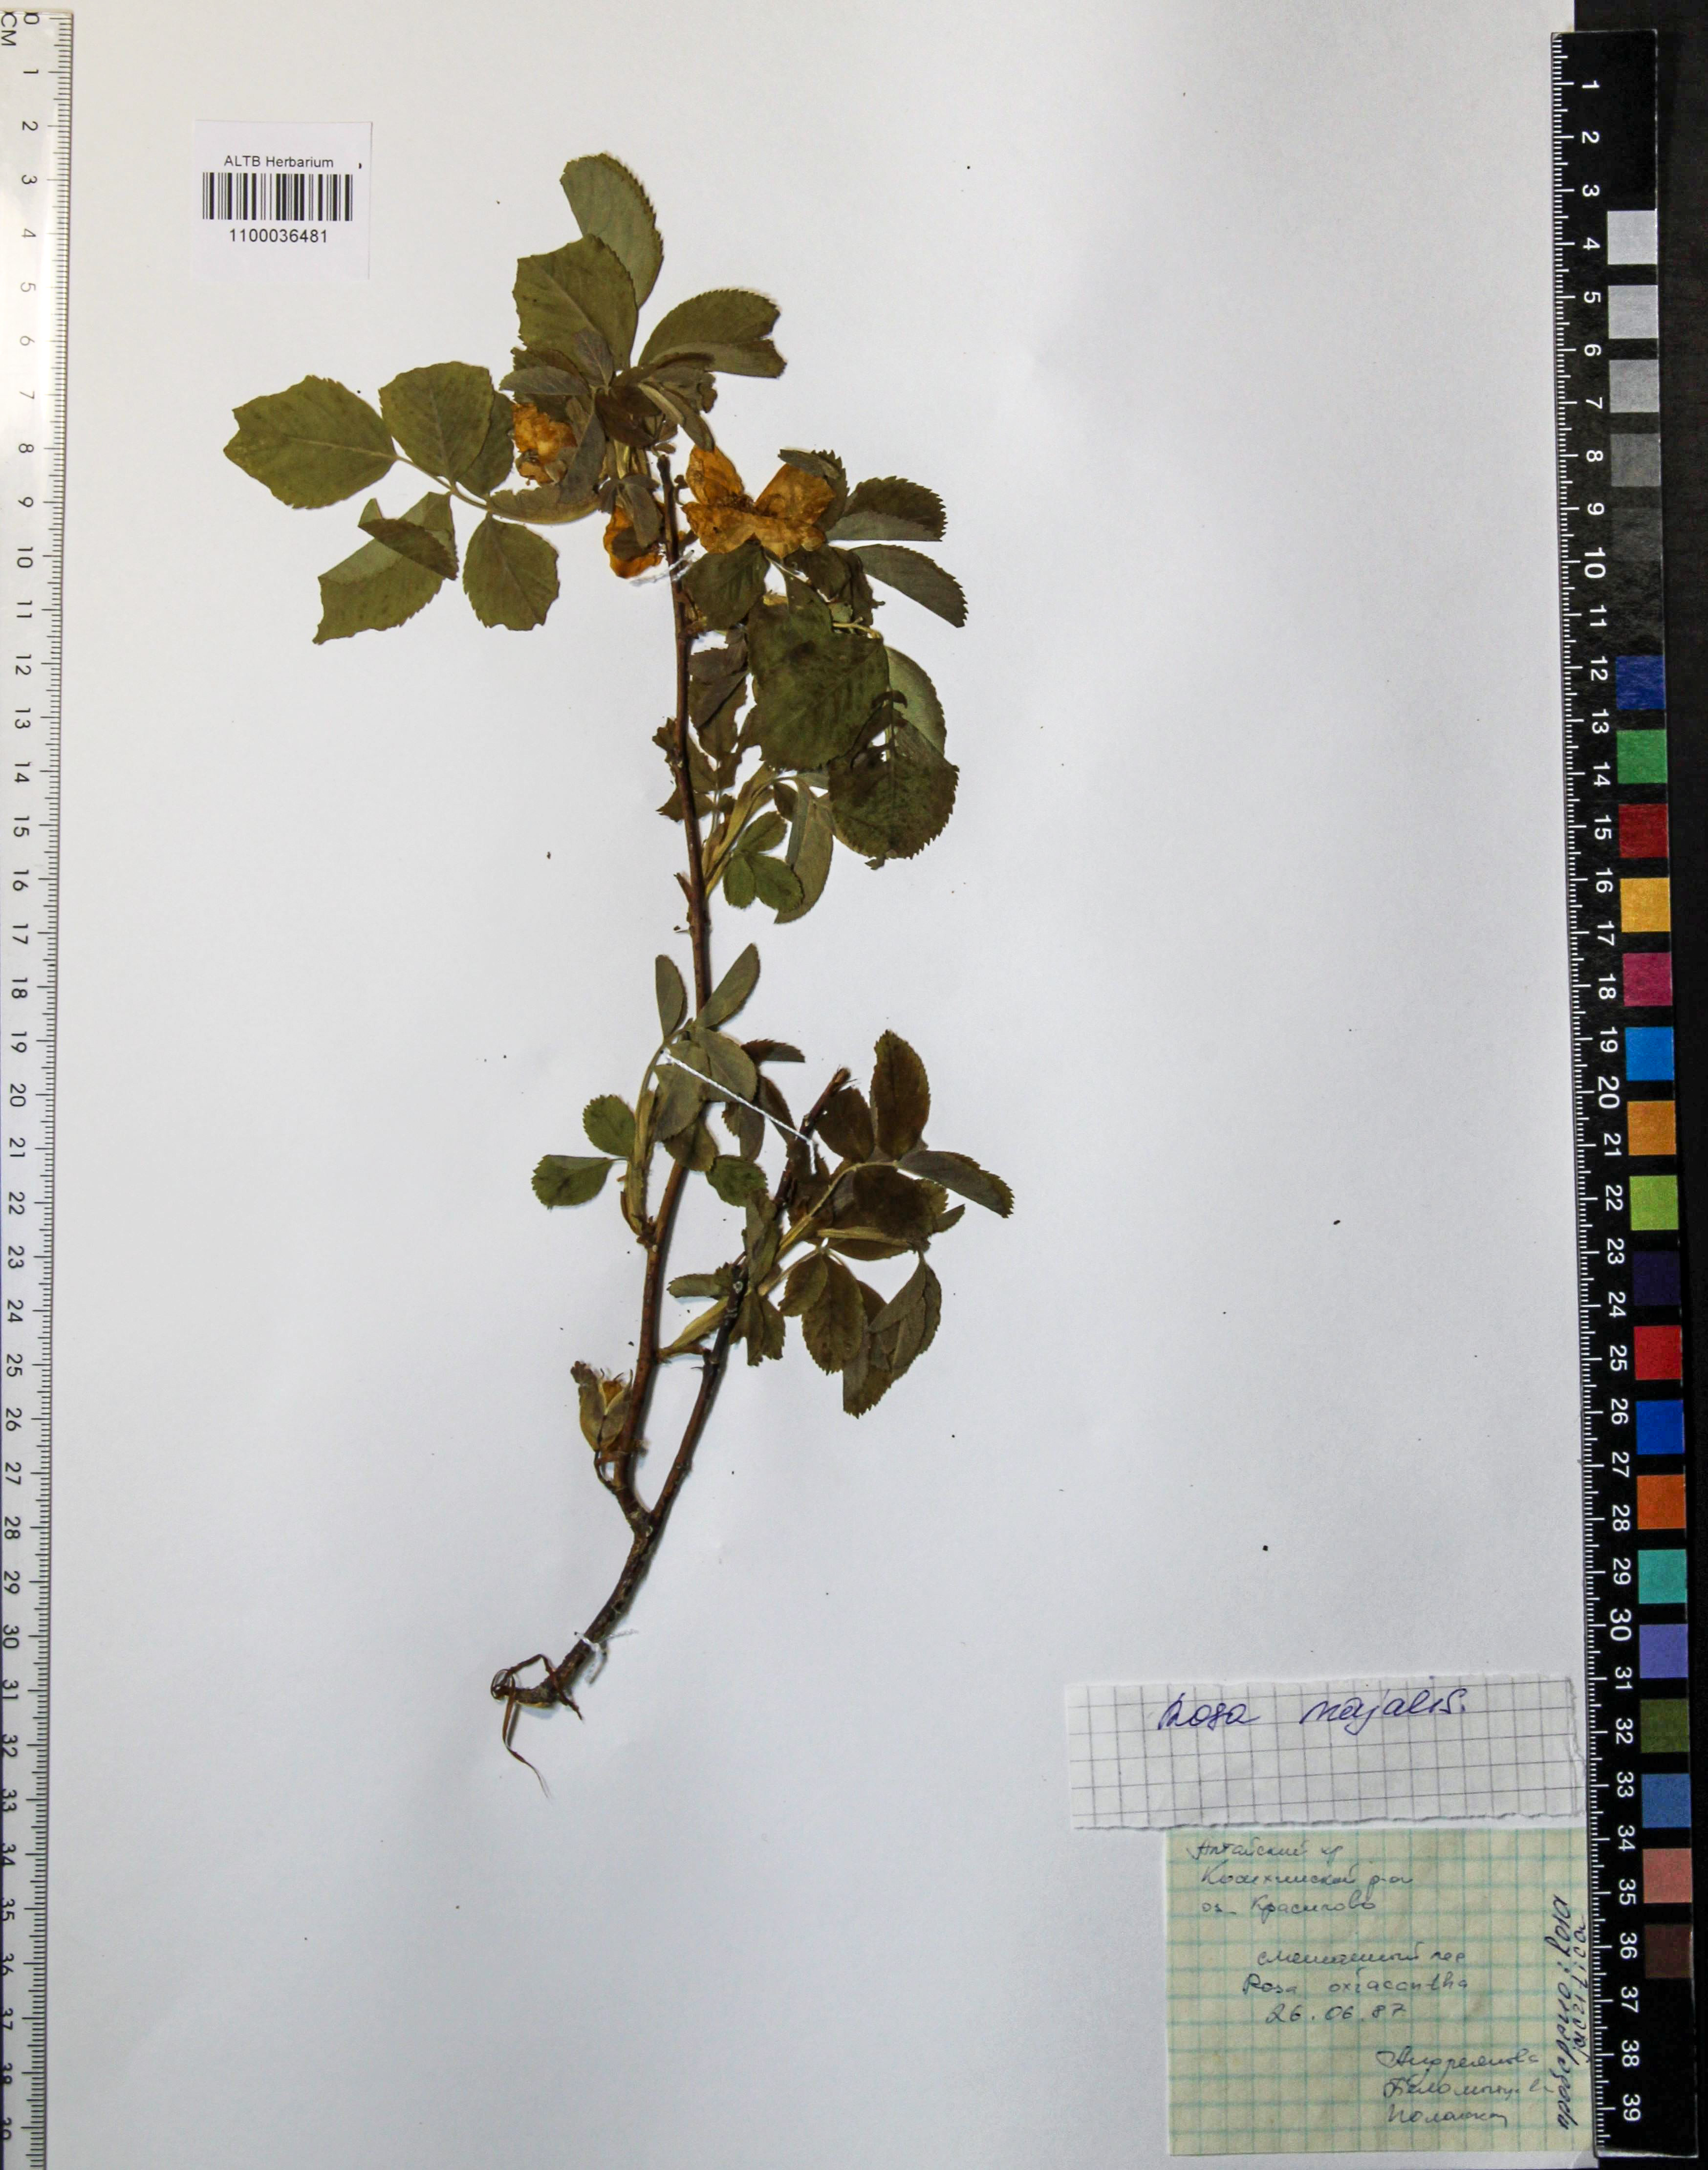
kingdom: Plantae
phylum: Tracheophyta
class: Magnoliopsida
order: Rosales
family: Rosaceae
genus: Rosa
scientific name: Rosa majalis
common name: Cinnamon rose
